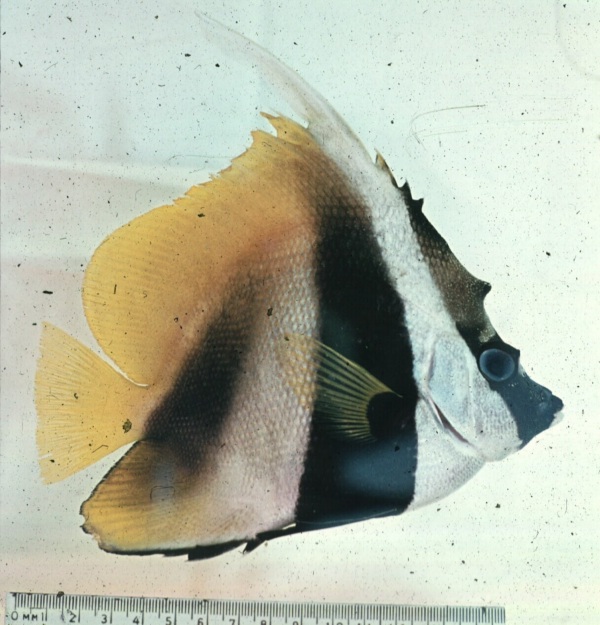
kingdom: Animalia
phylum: Chordata
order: Perciformes
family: Chaetodontidae
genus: Heniochus
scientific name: Heniochus monoceros
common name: Masked bannerfish
